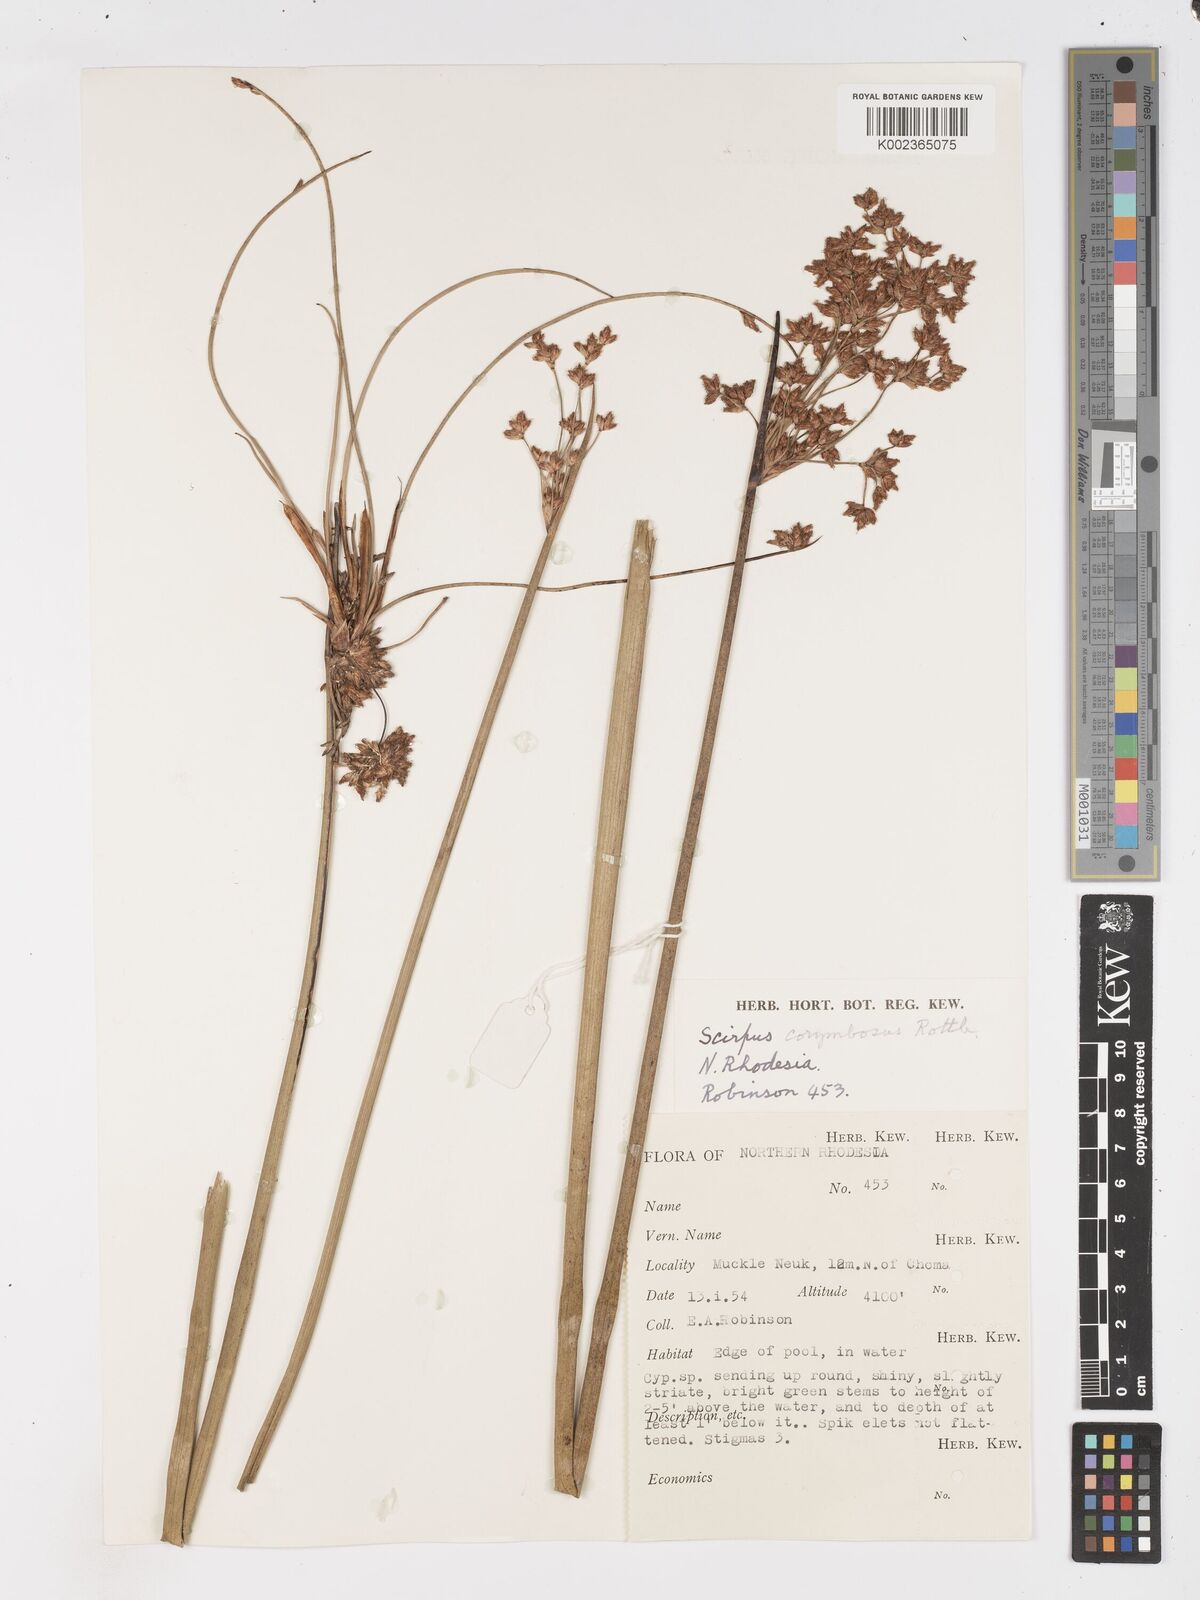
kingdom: Plantae
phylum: Tracheophyta
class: Liliopsida
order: Poales
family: Cyperaceae
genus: Schoenoplectiella
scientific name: Schoenoplectiella corymbosa
